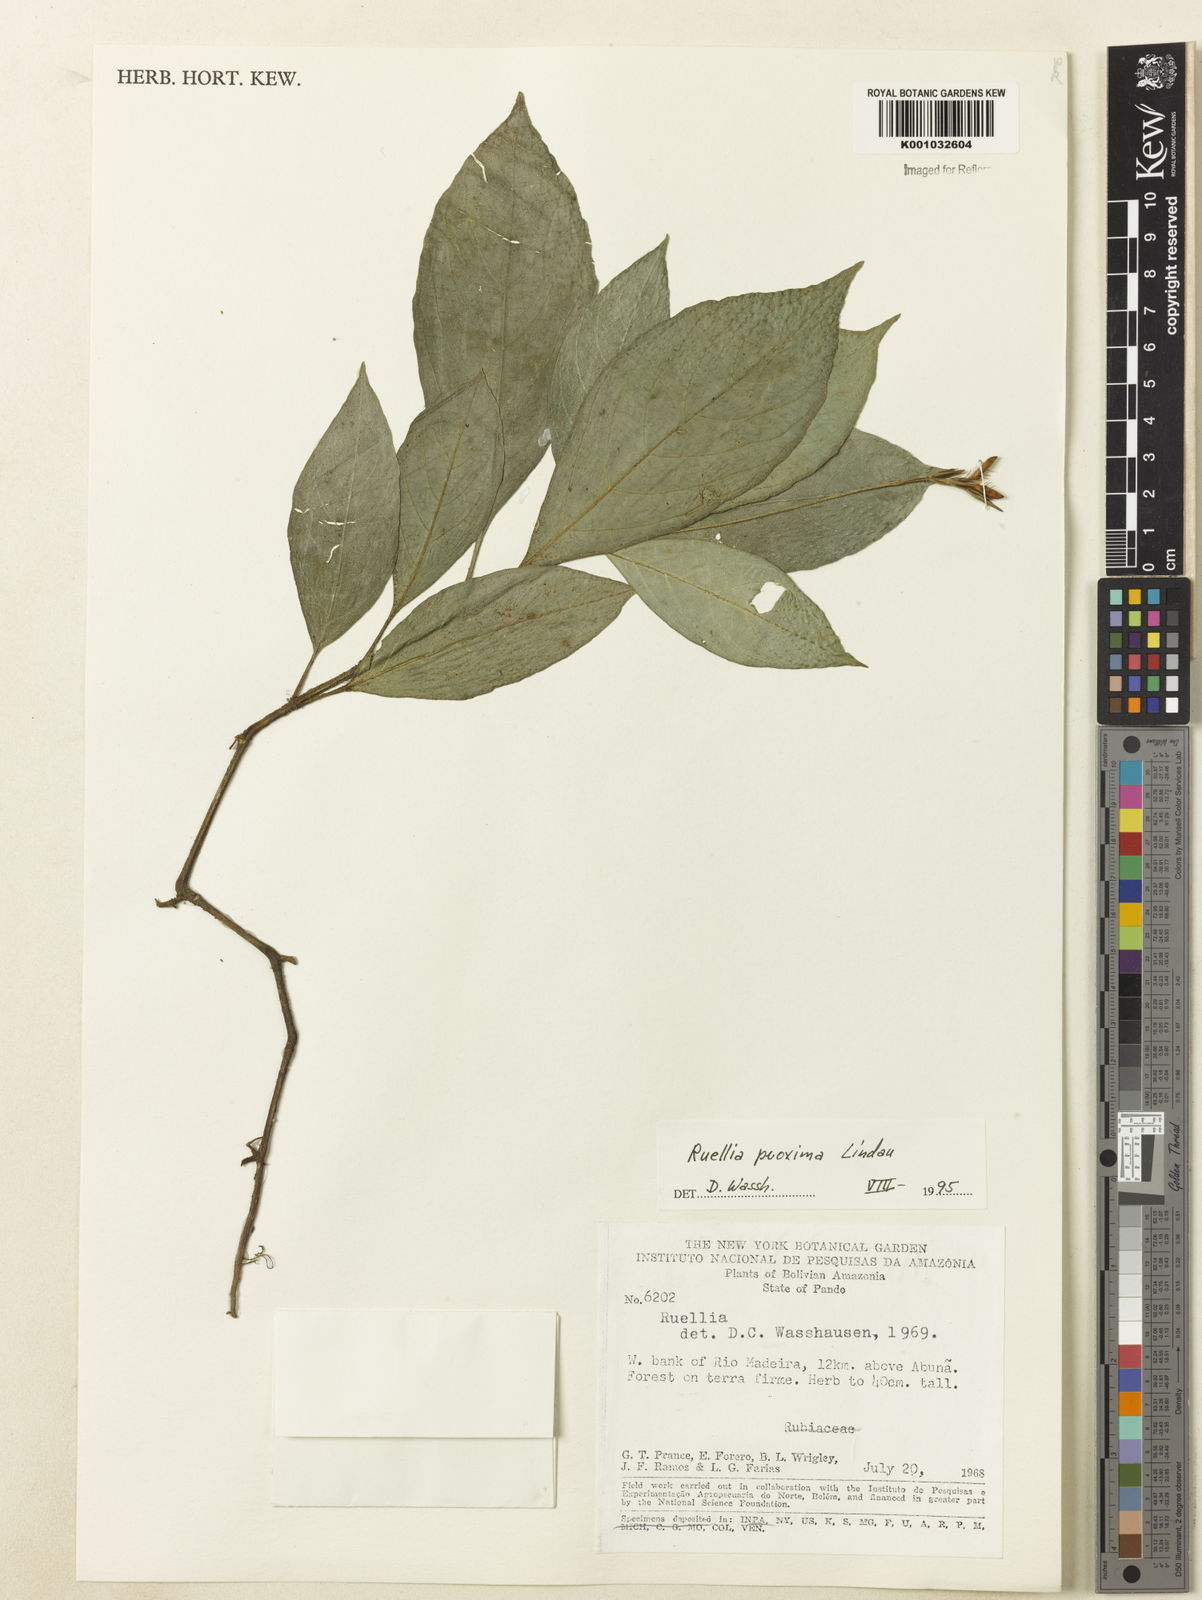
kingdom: Plantae
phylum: Tracheophyta
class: Magnoliopsida
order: Lamiales
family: Acanthaceae
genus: Ruellia
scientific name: Ruellia proxima
